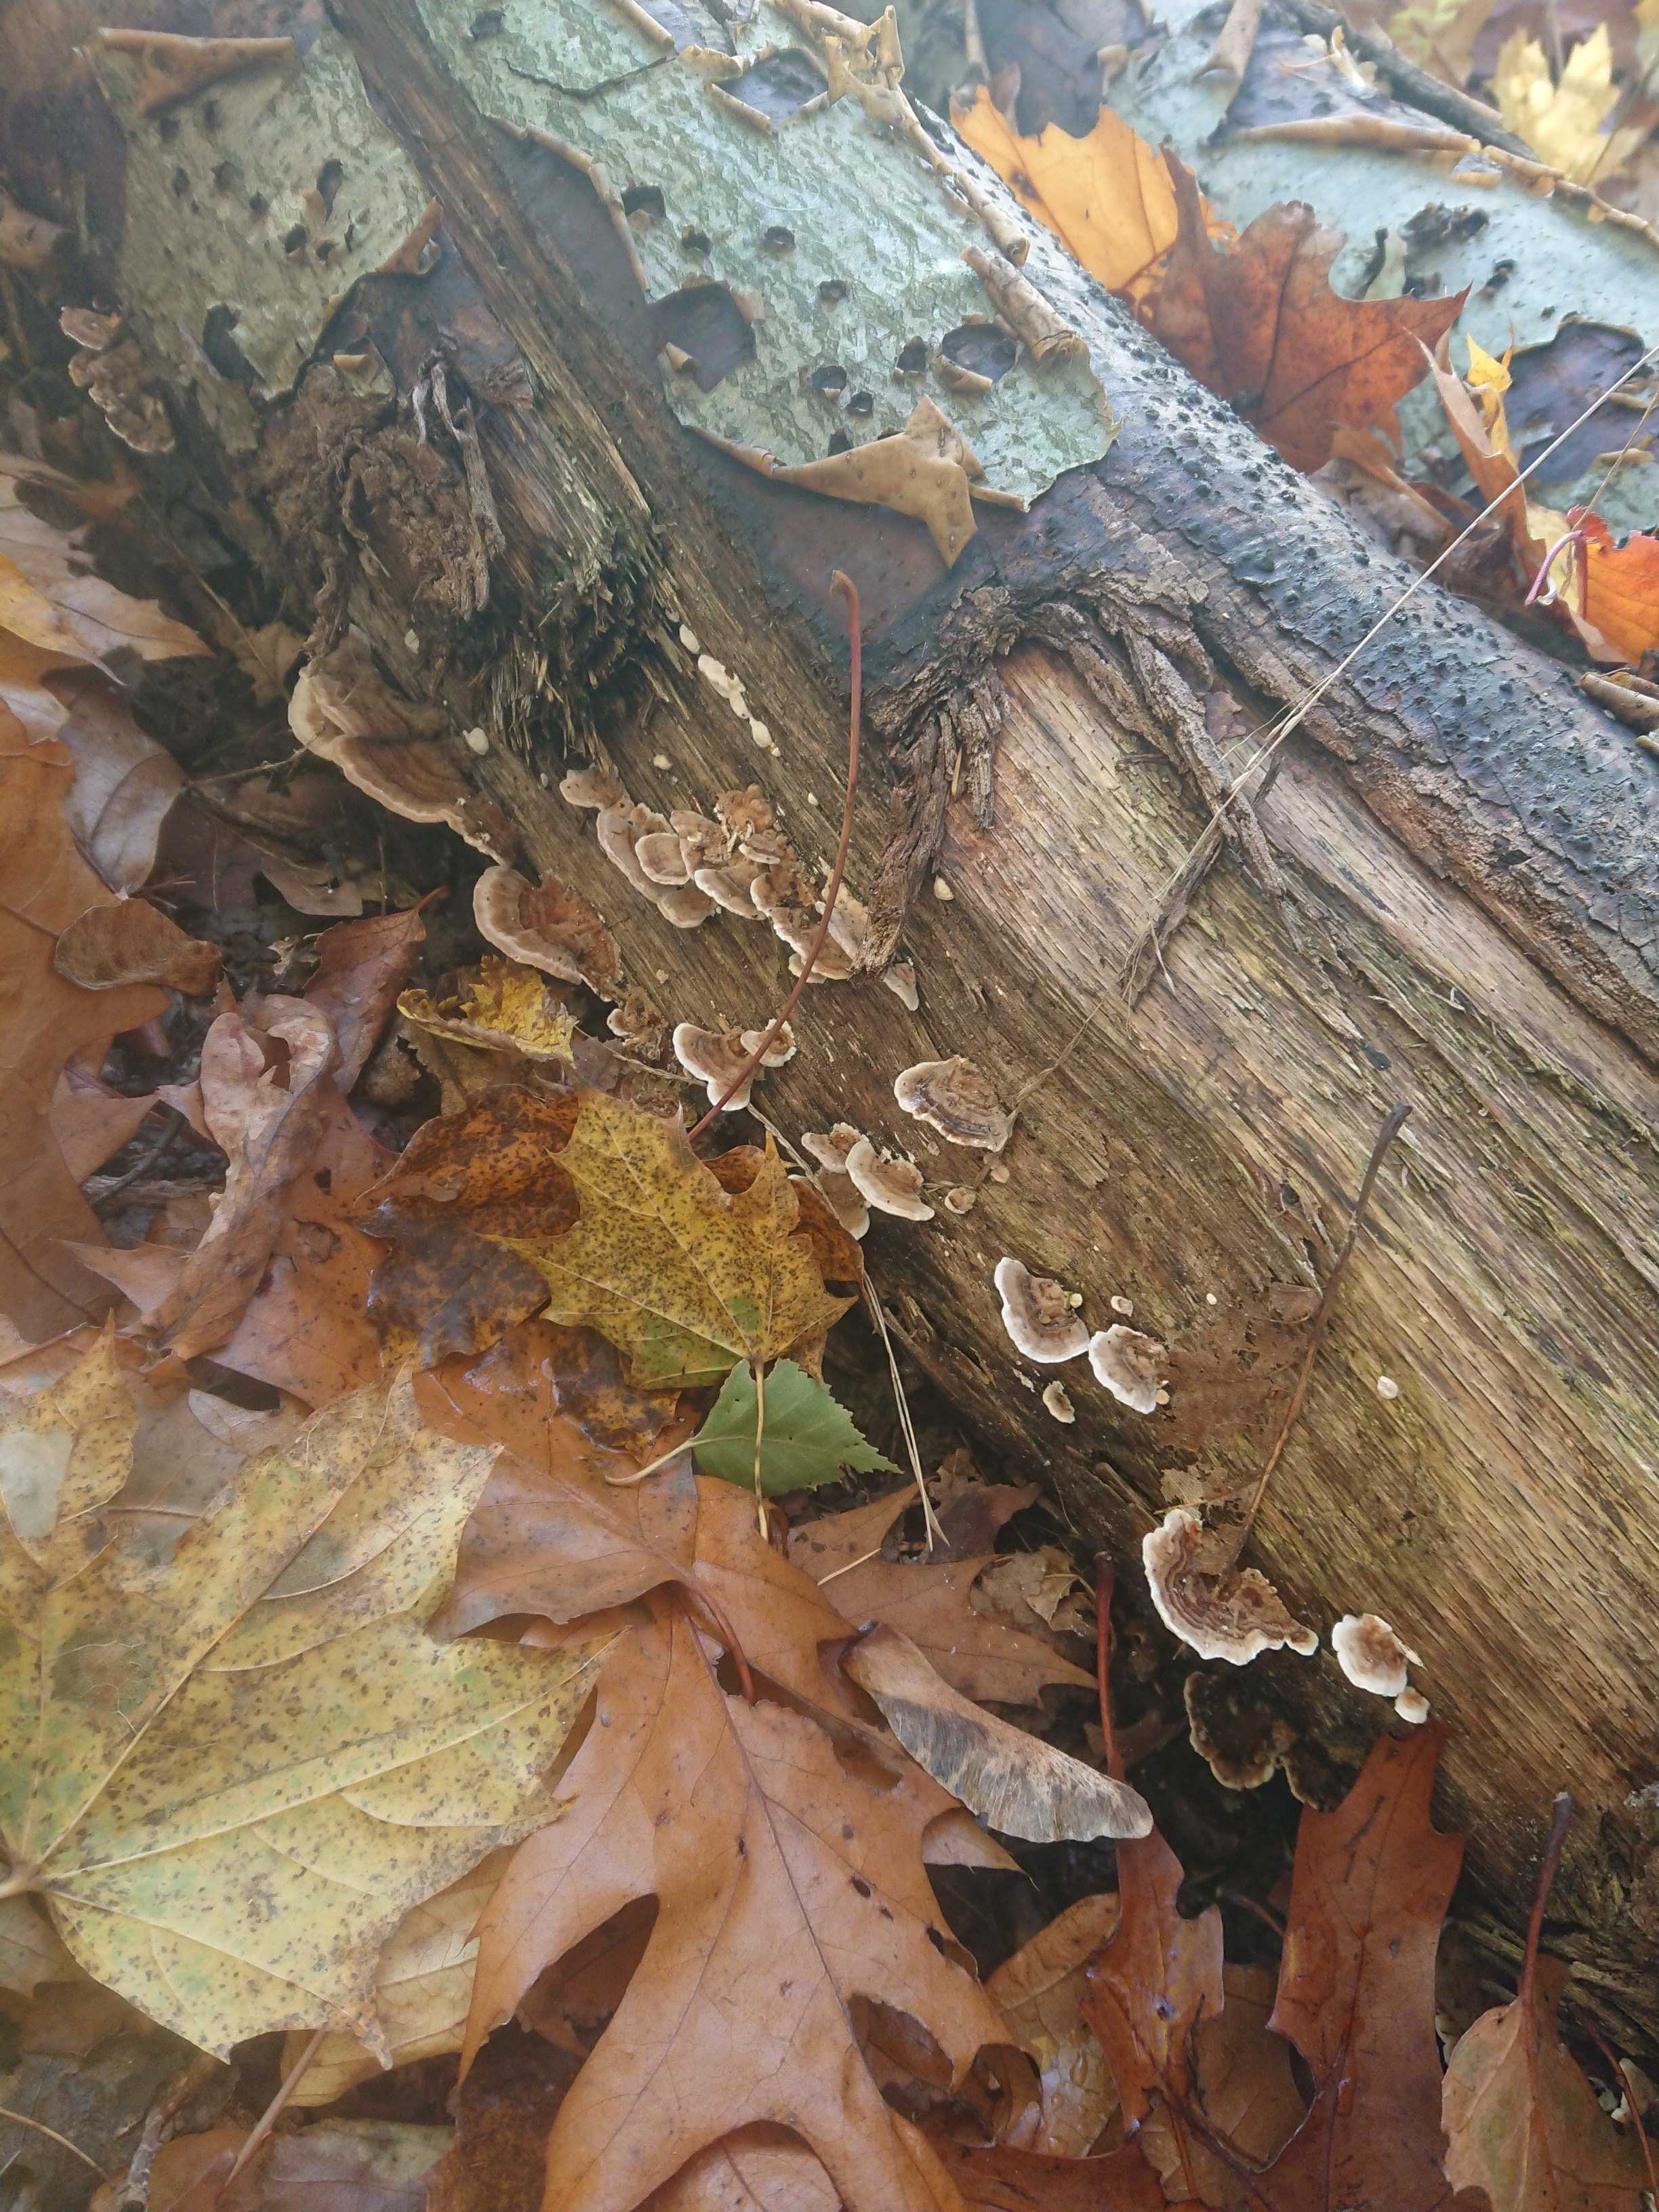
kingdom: Fungi
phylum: Basidiomycota
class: Agaricomycetes
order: Polyporales
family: Polyporaceae
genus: Trametes
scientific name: Trametes versicolor
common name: broget læderporesvamp
